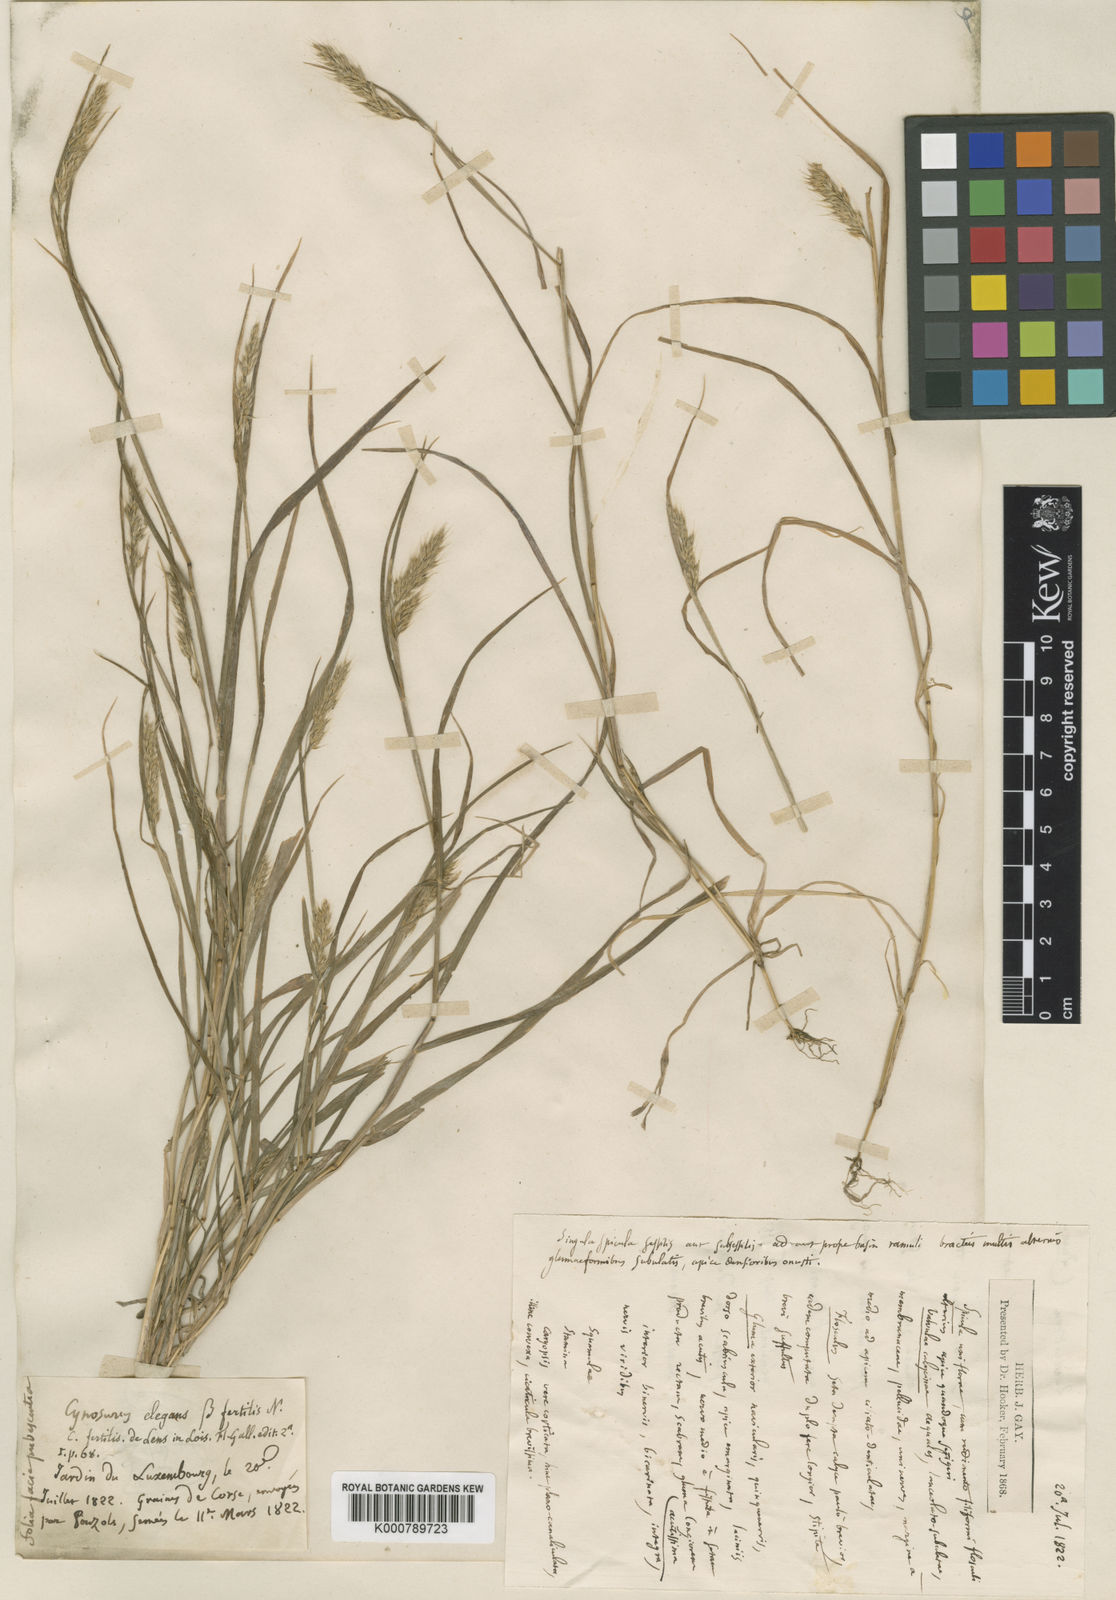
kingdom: Plantae
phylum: Tracheophyta
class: Liliopsida
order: Poales
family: Poaceae
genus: Cynosurus
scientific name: Cynosurus elegans
